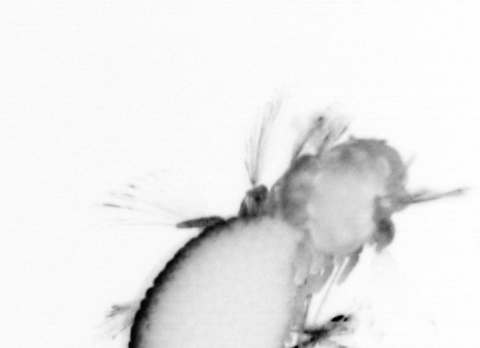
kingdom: Animalia
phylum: Annelida
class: Polychaeta
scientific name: Polychaeta
